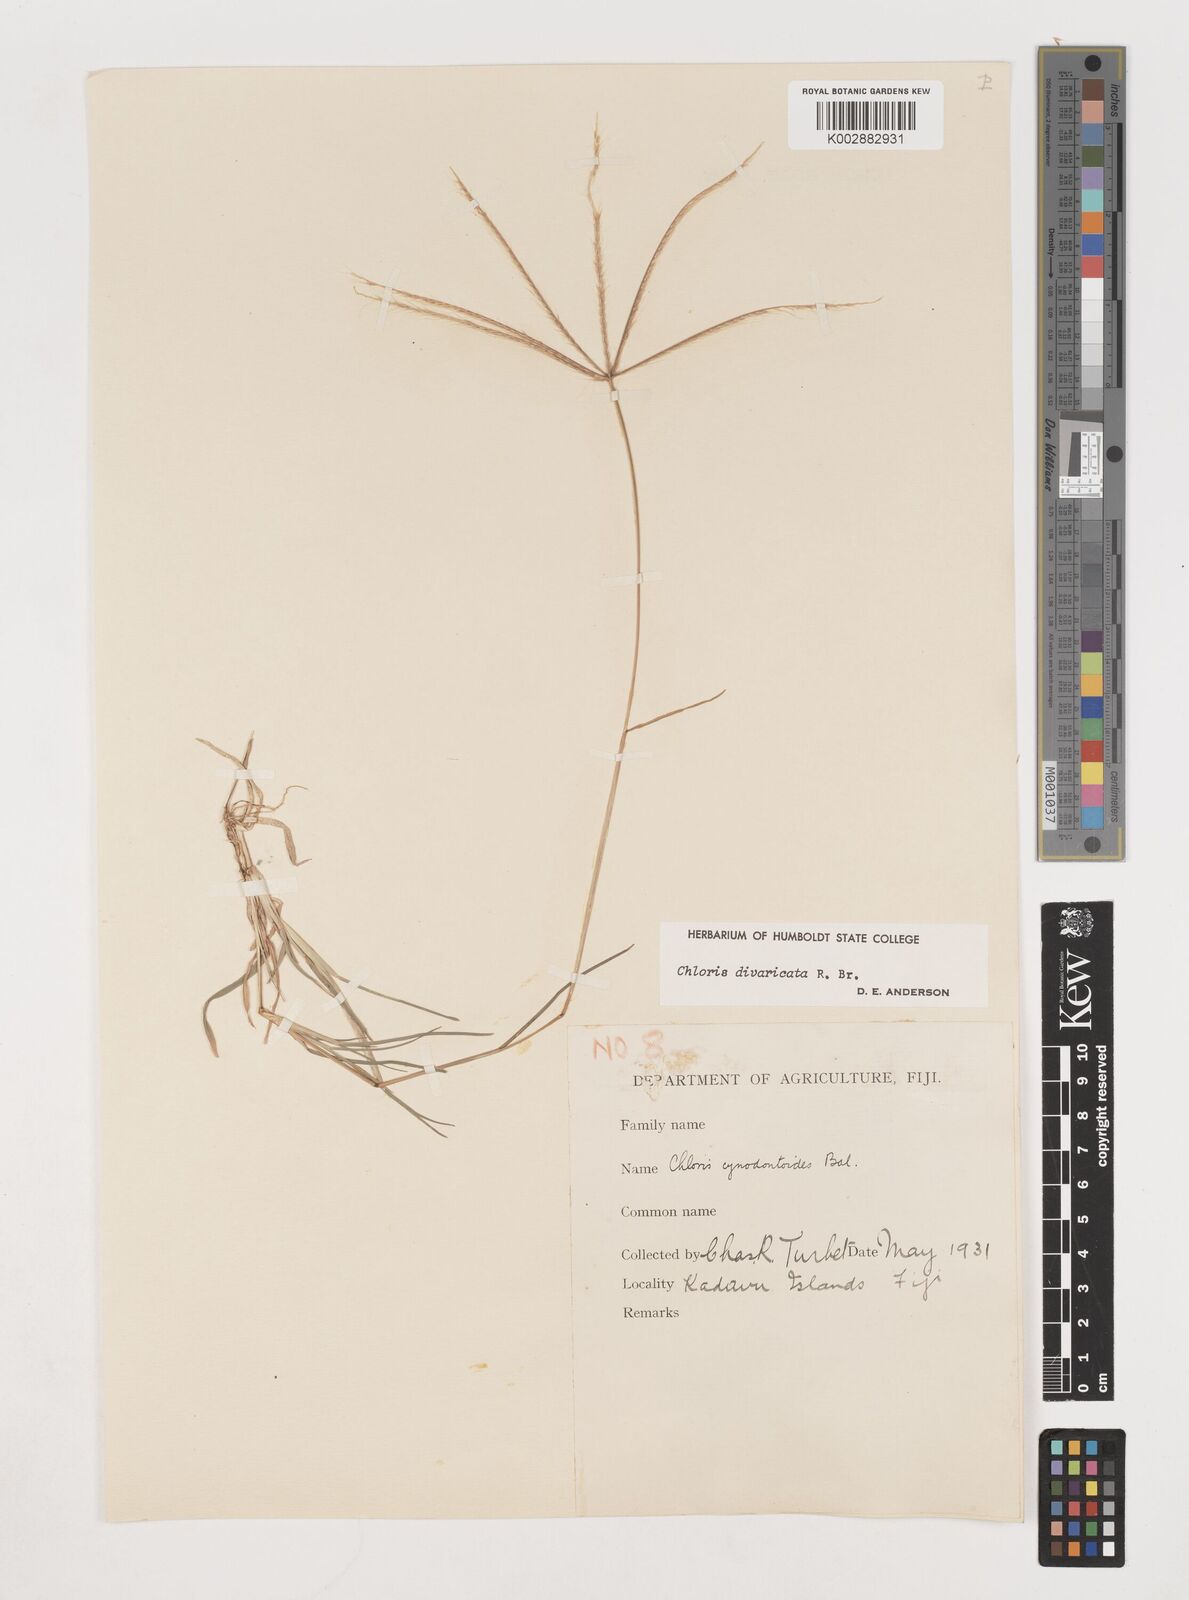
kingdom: Plantae
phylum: Tracheophyta
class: Liliopsida
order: Poales
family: Poaceae
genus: Chloris
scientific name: Chloris divaricata
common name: Spreading windmill grass
